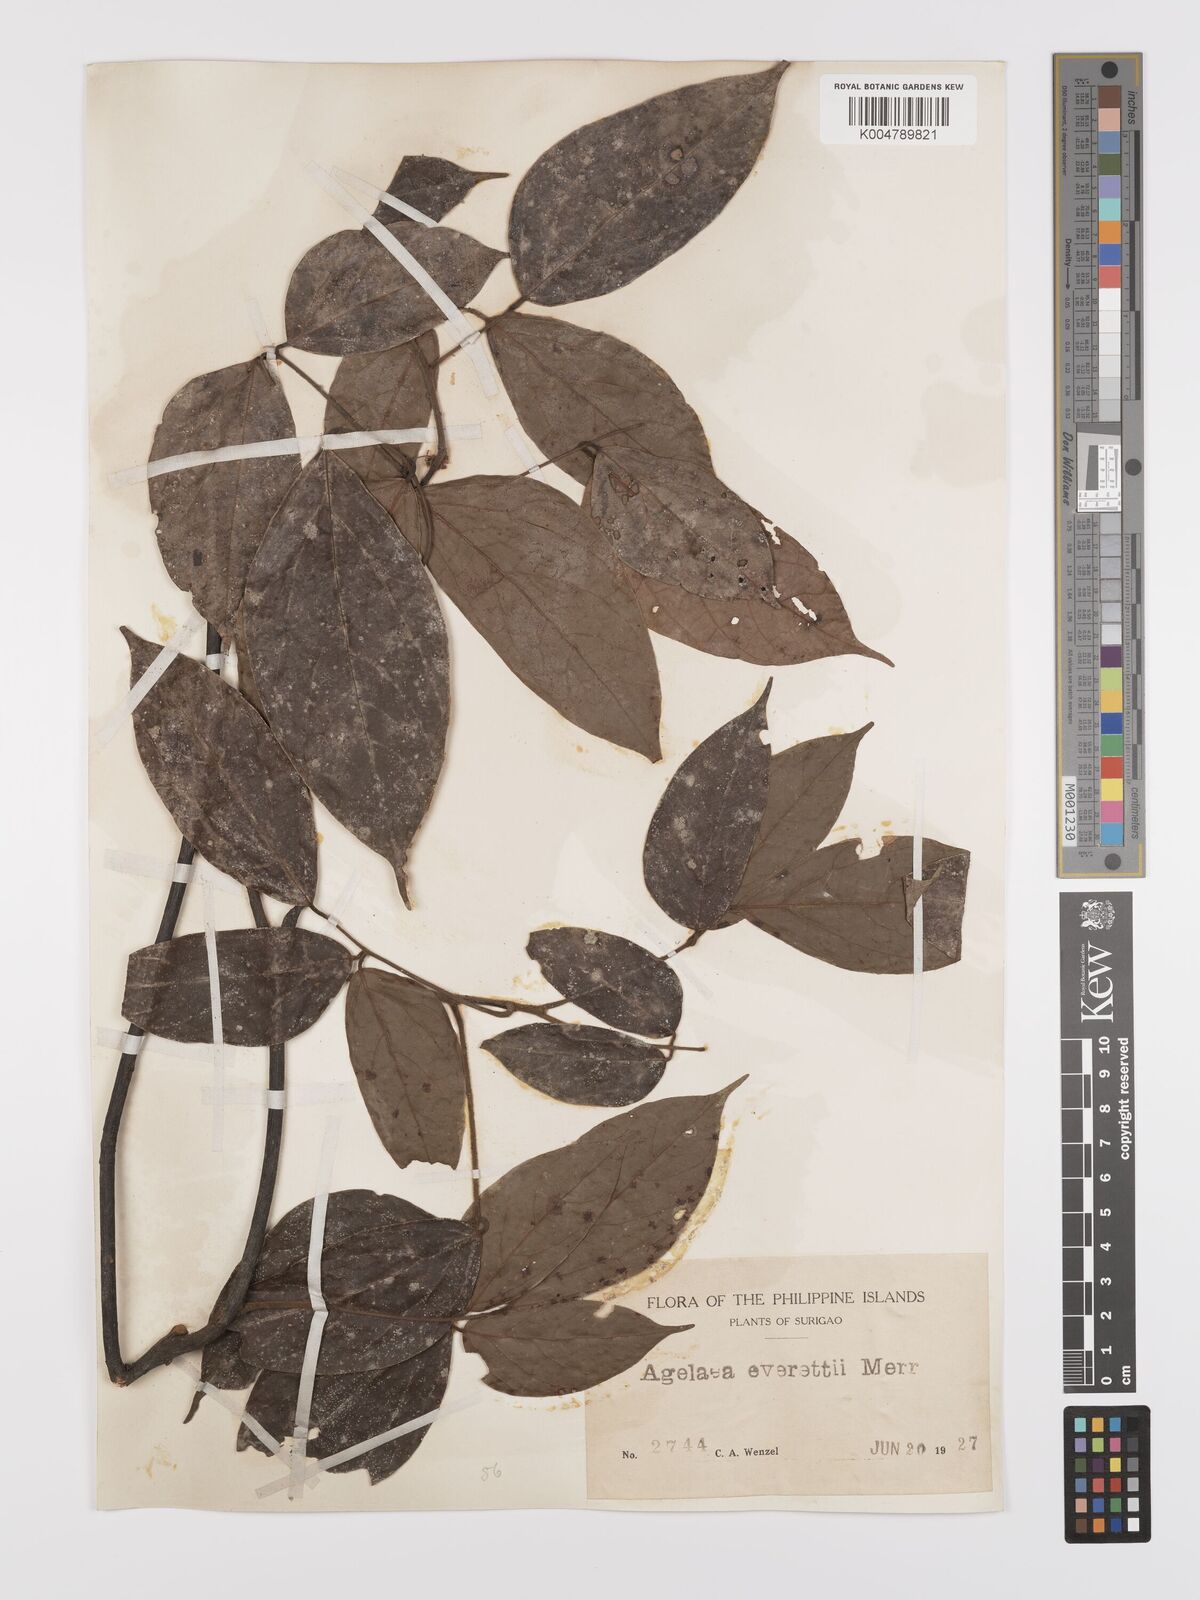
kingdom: Plantae
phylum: Tracheophyta
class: Magnoliopsida
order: Oxalidales
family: Connaraceae
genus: Agelaea
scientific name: Agelaea borneensis
